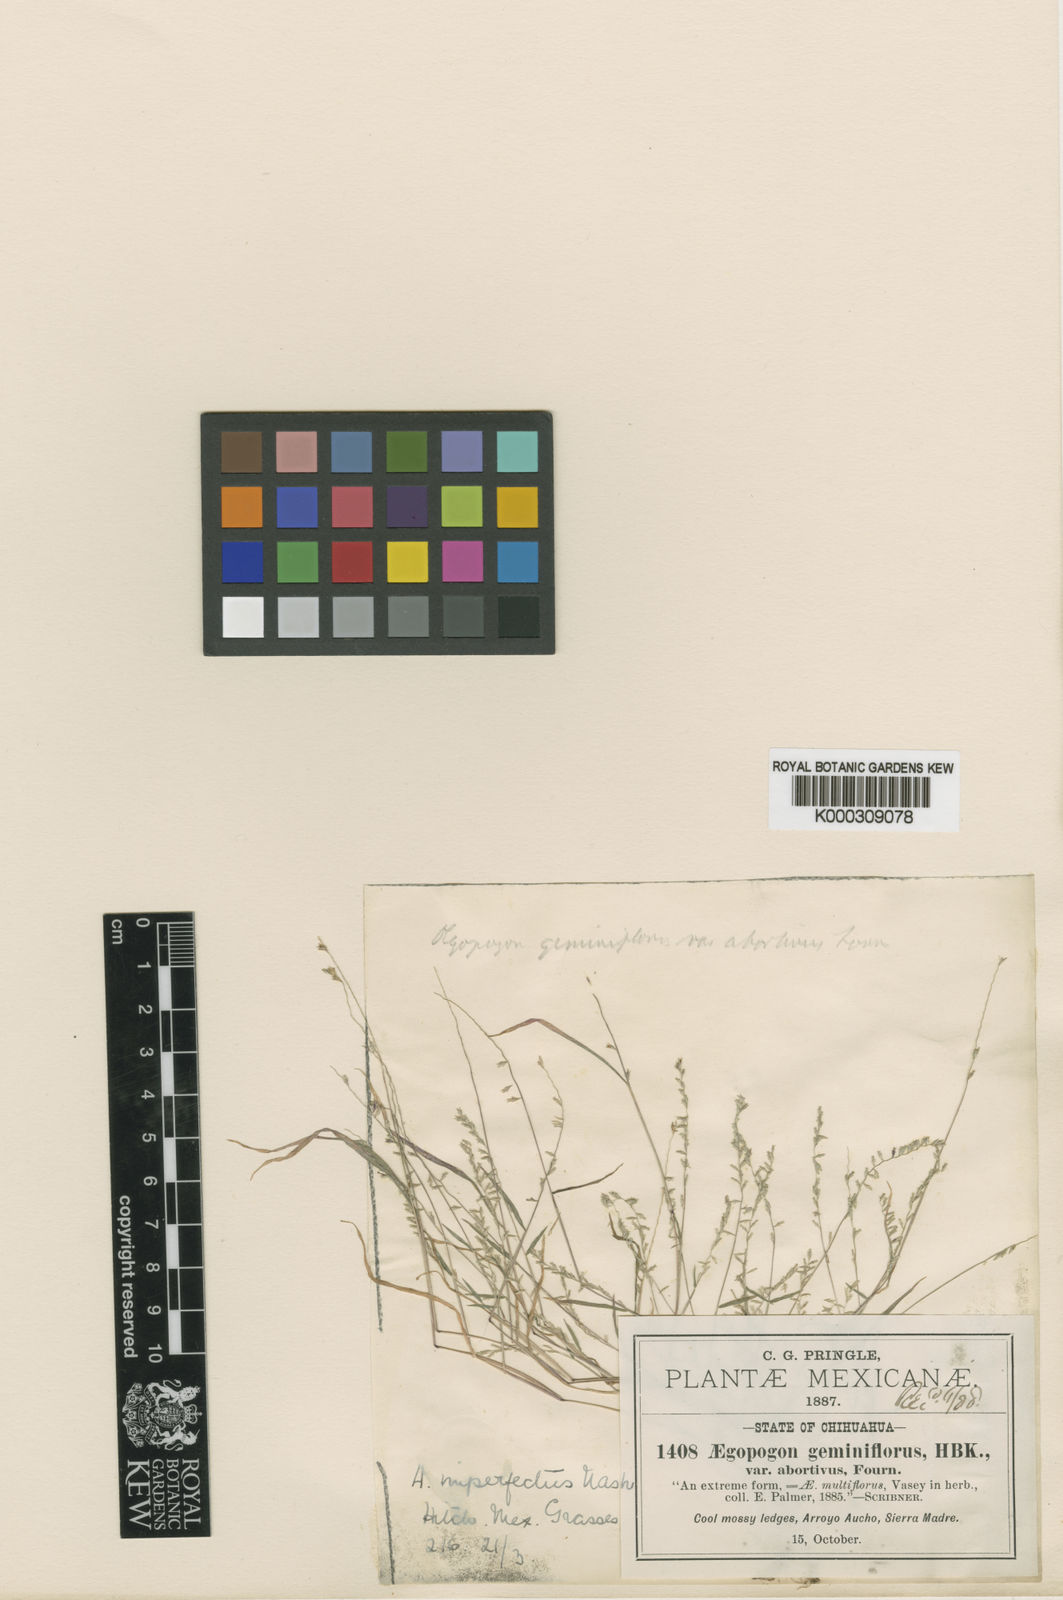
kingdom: Plantae
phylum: Tracheophyta
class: Liliopsida
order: Poales
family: Poaceae
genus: Muhlenbergia
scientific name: Muhlenbergia uniseta
